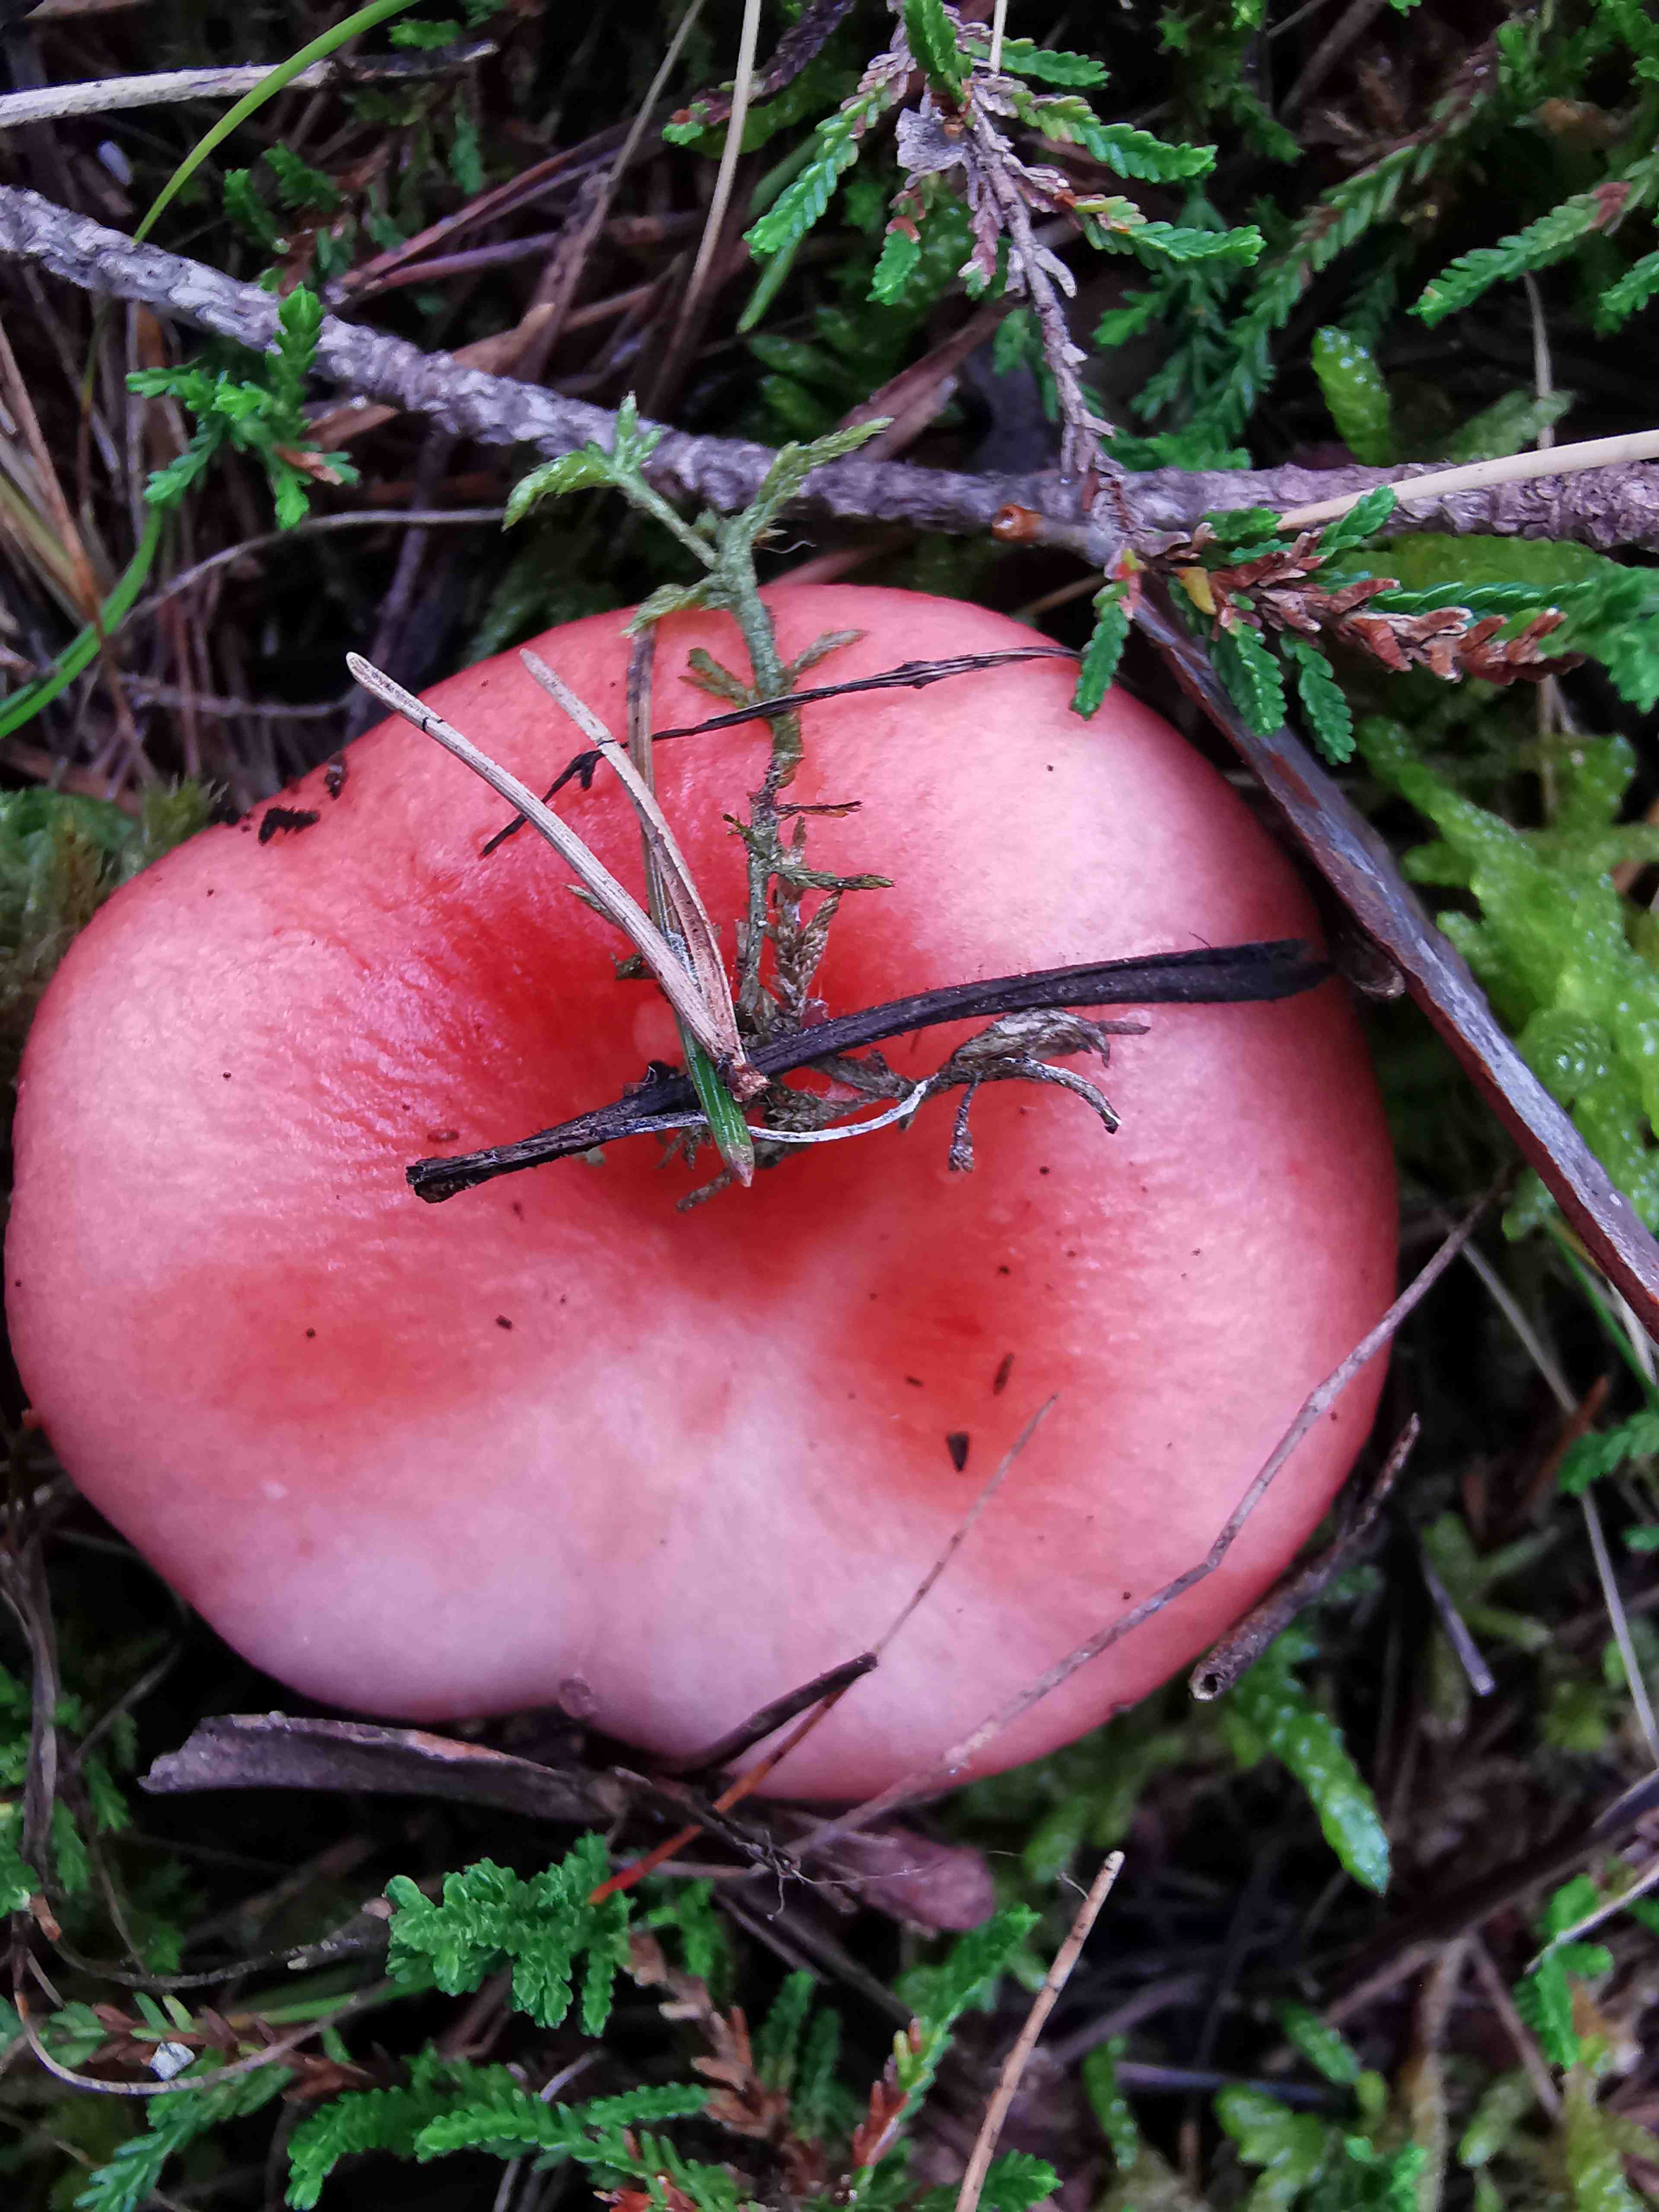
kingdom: Fungi
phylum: Basidiomycota
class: Agaricomycetes
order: Russulales
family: Russulaceae
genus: Russula
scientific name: Russula
